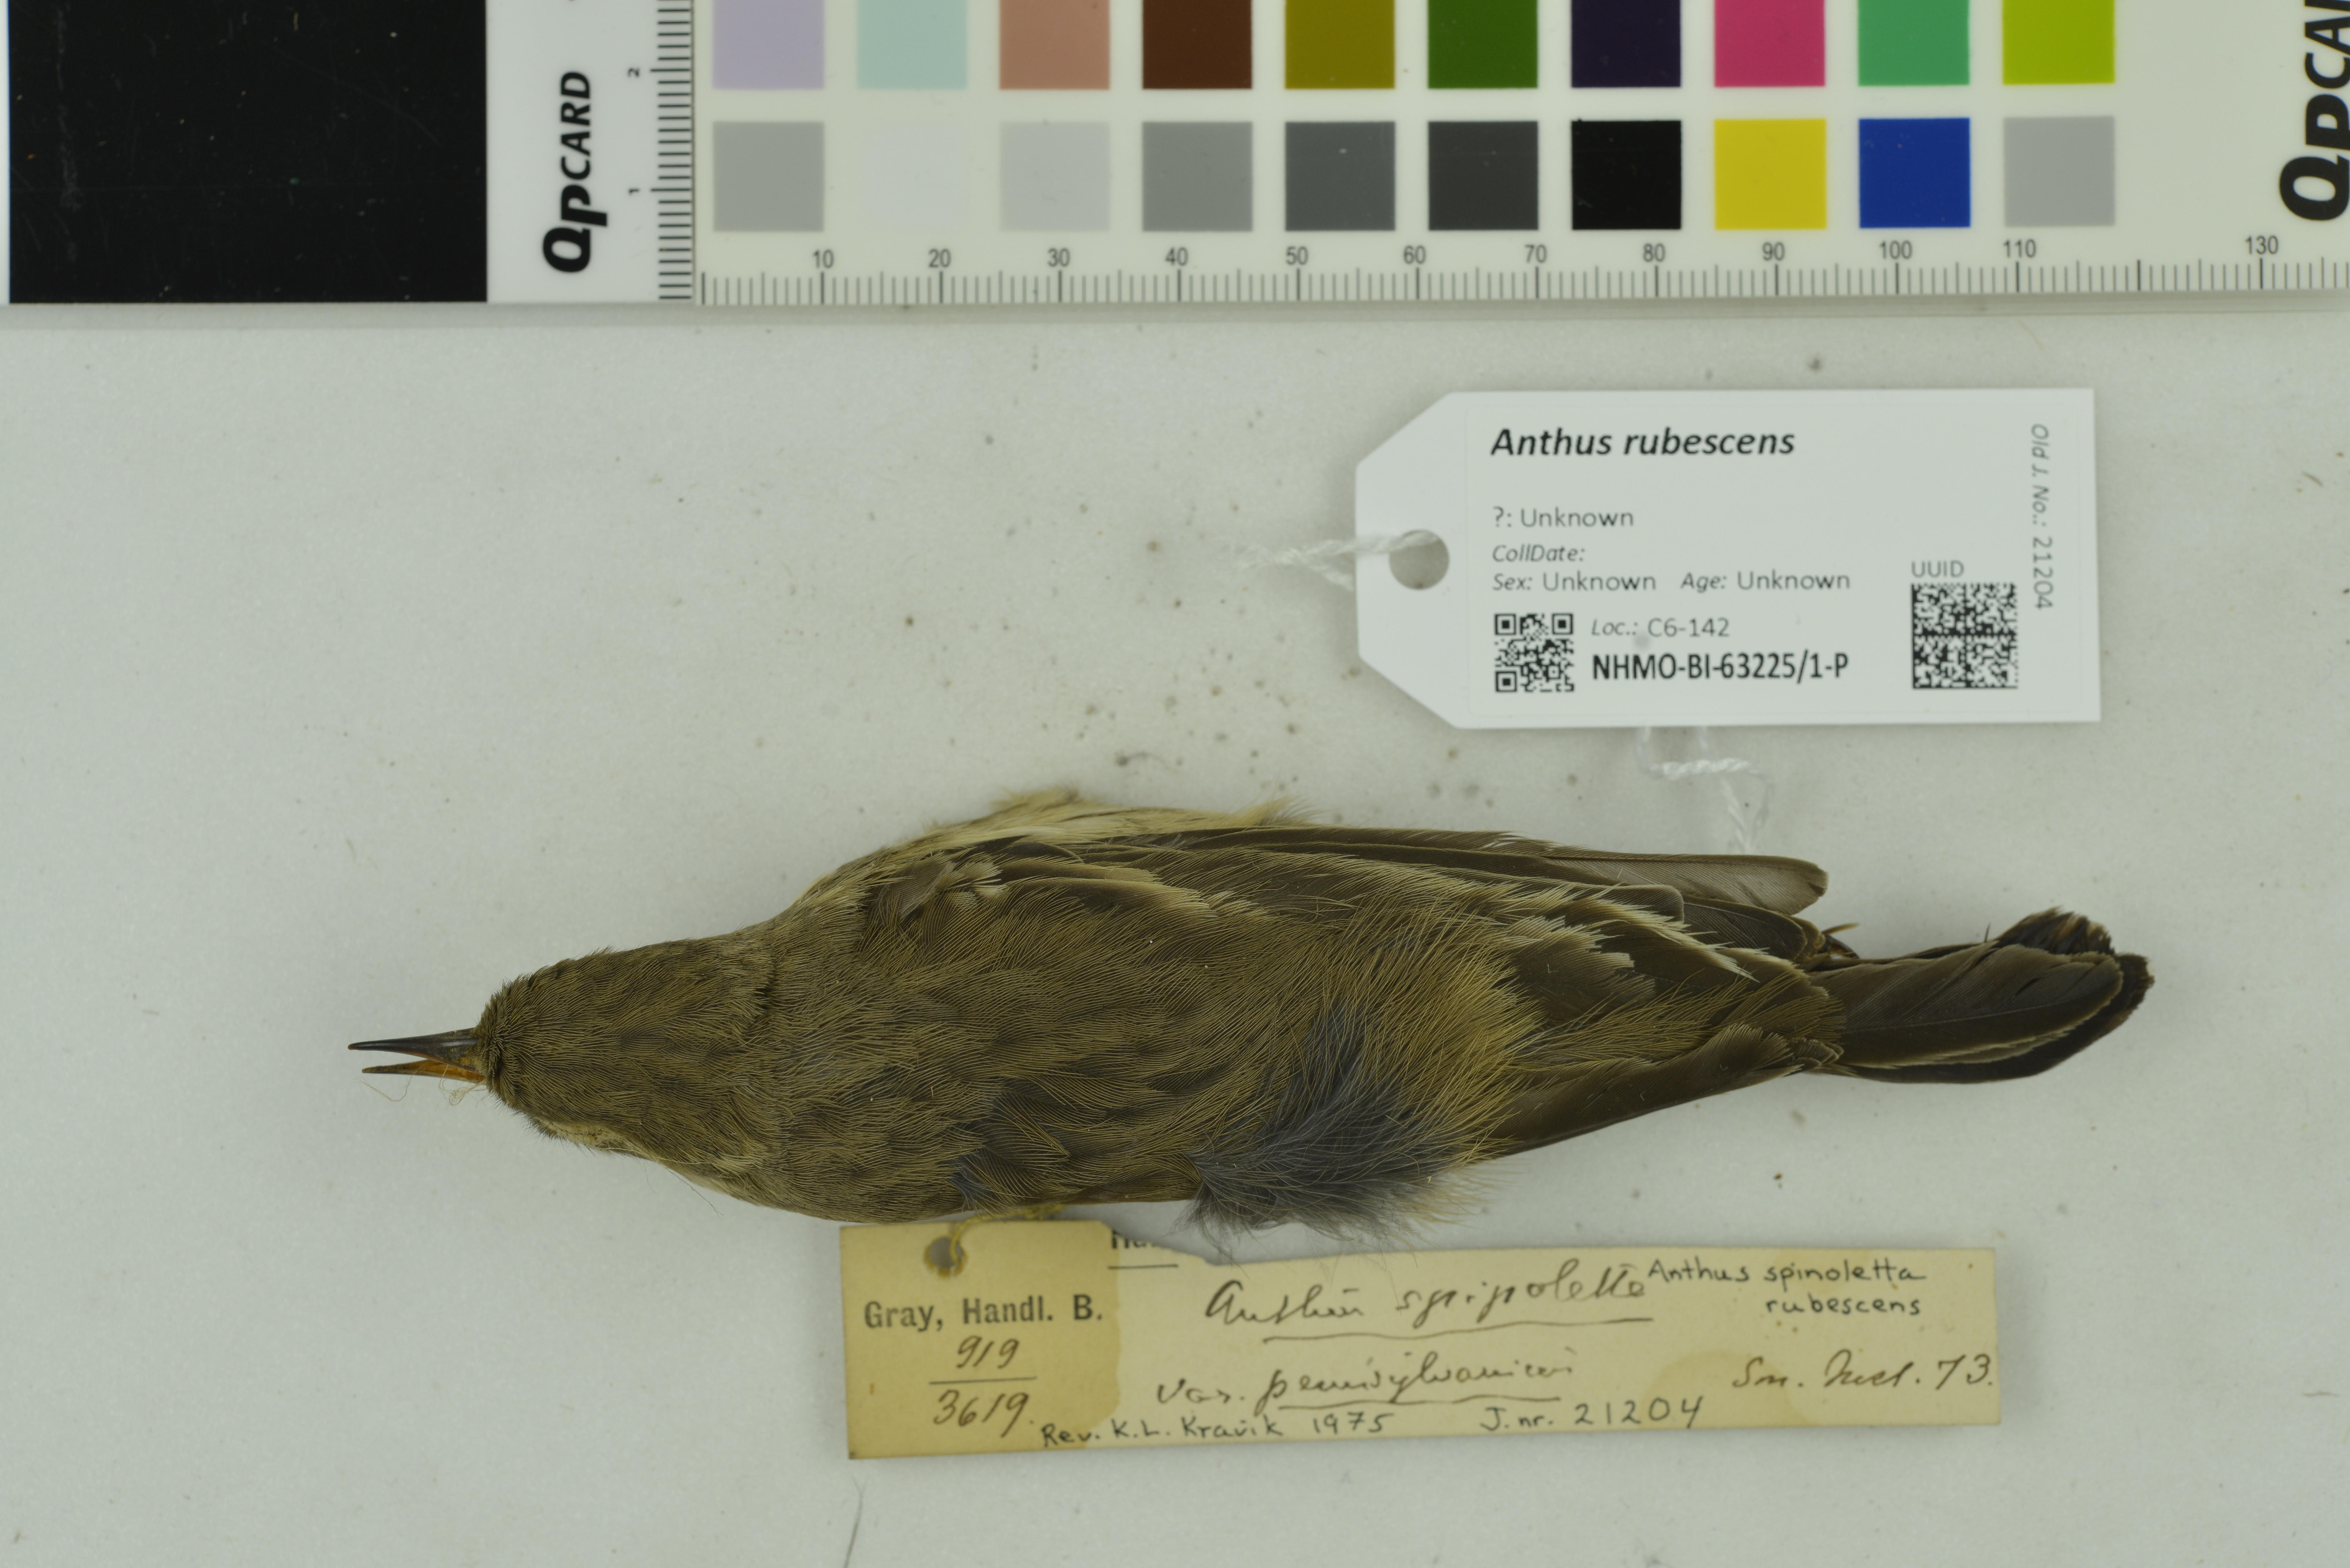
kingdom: Animalia
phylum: Chordata
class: Aves
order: Passeriformes
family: Motacillidae
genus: Anthus
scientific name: Anthus rubescens
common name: Buff-bellied pipit
